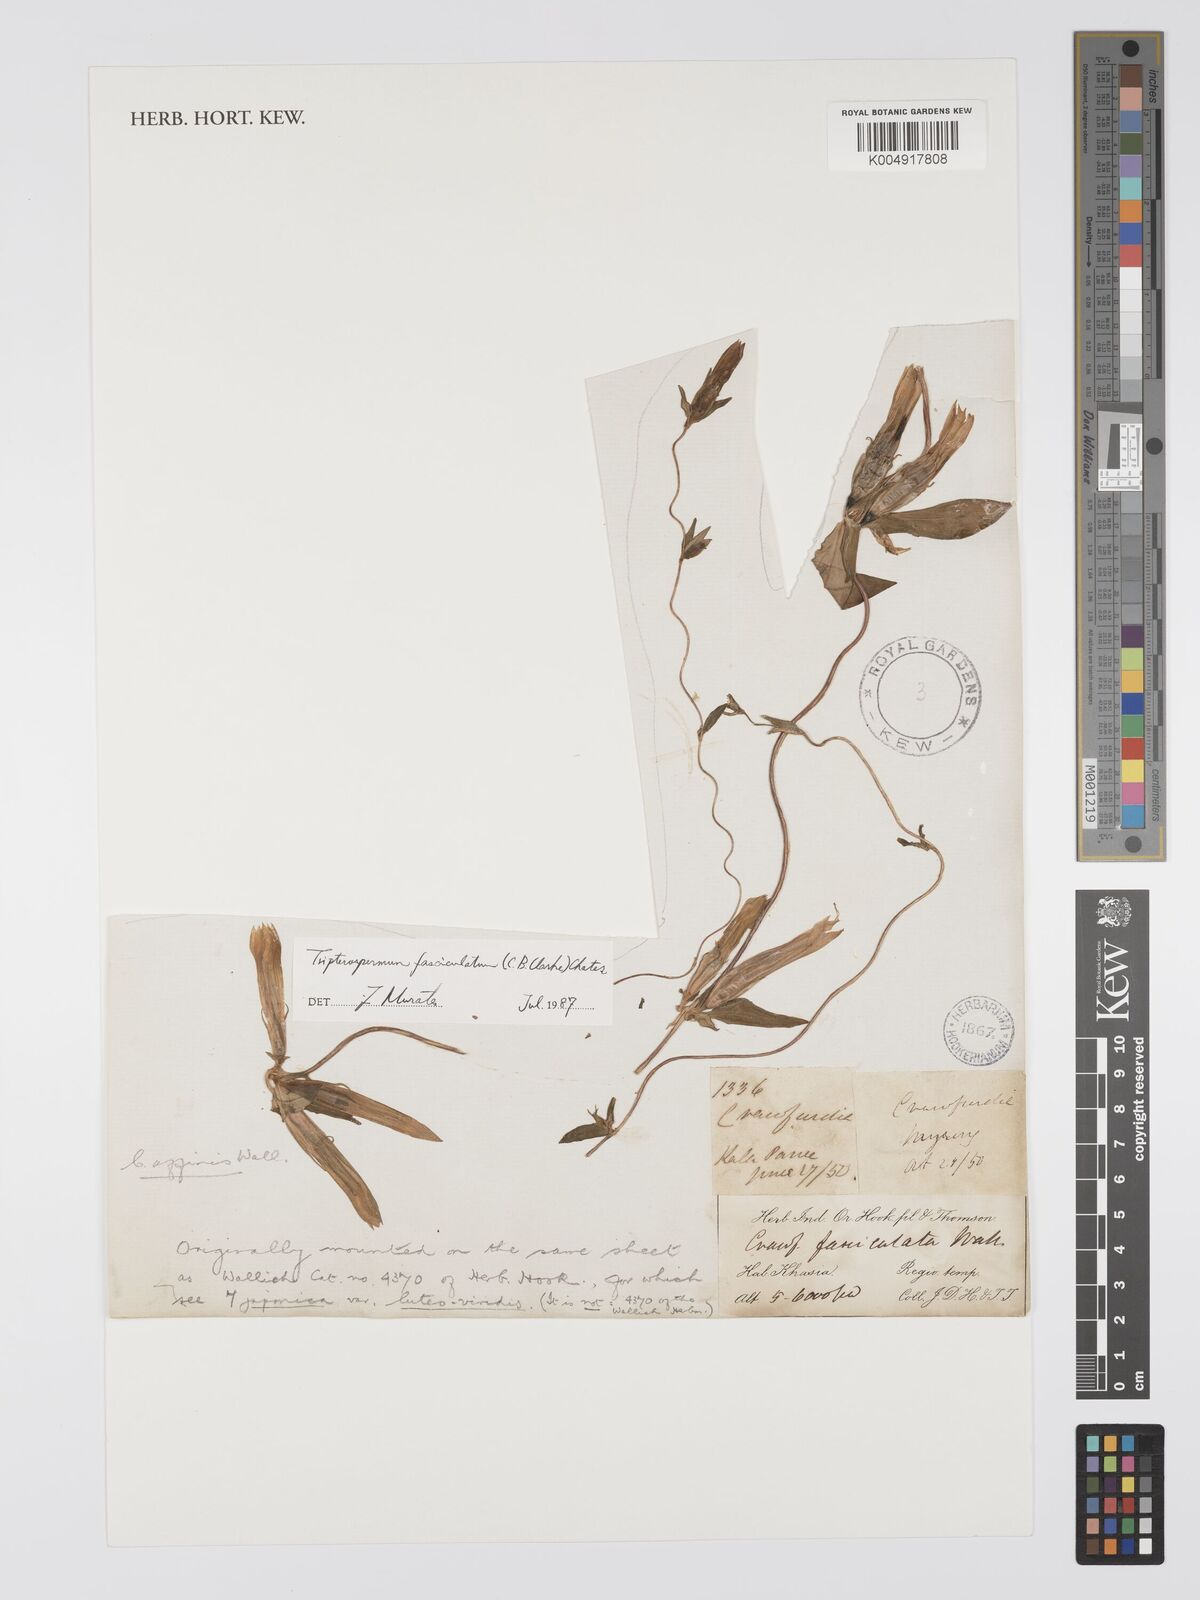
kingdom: Plantae
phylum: Tracheophyta
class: Magnoliopsida
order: Gentianales
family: Gentianaceae
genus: Tripterospermum
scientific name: Tripterospermum fasciculatum
